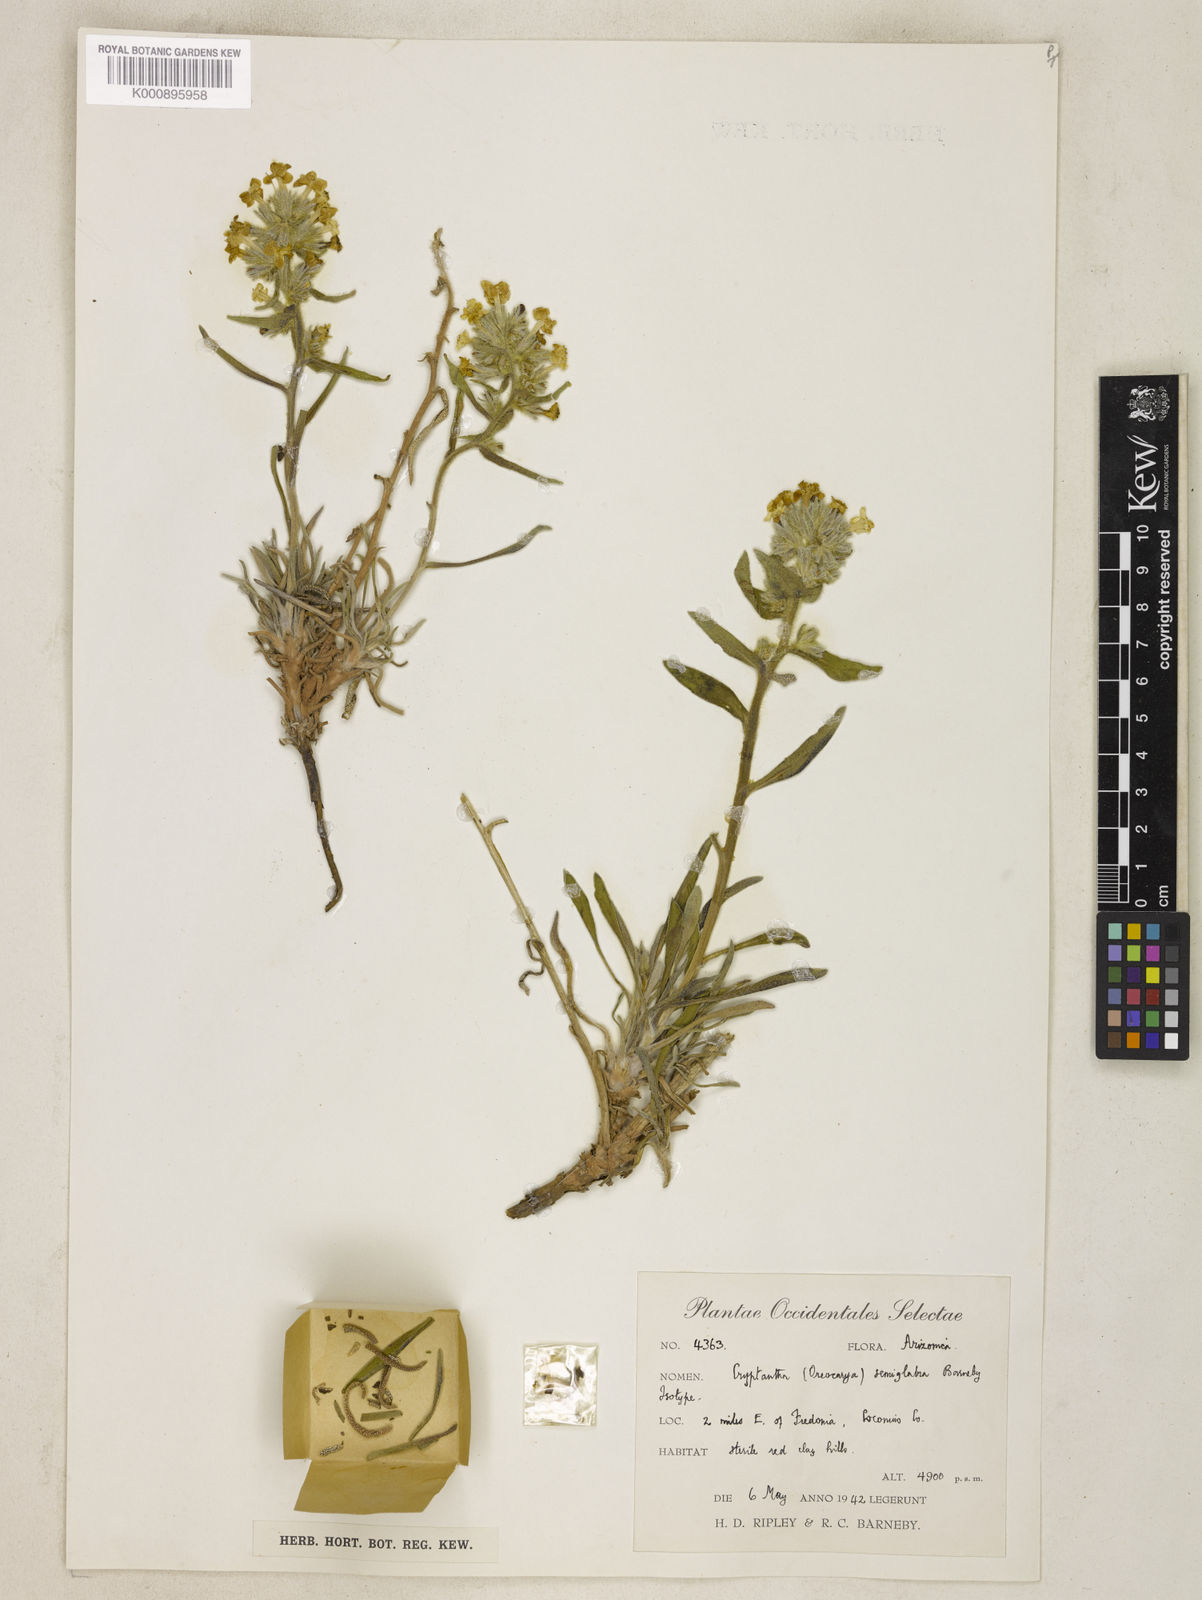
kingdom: Plantae
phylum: Tracheophyta
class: Magnoliopsida
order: Boraginales
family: Boraginaceae
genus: Oreocarya
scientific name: Oreocarya semiglabra
